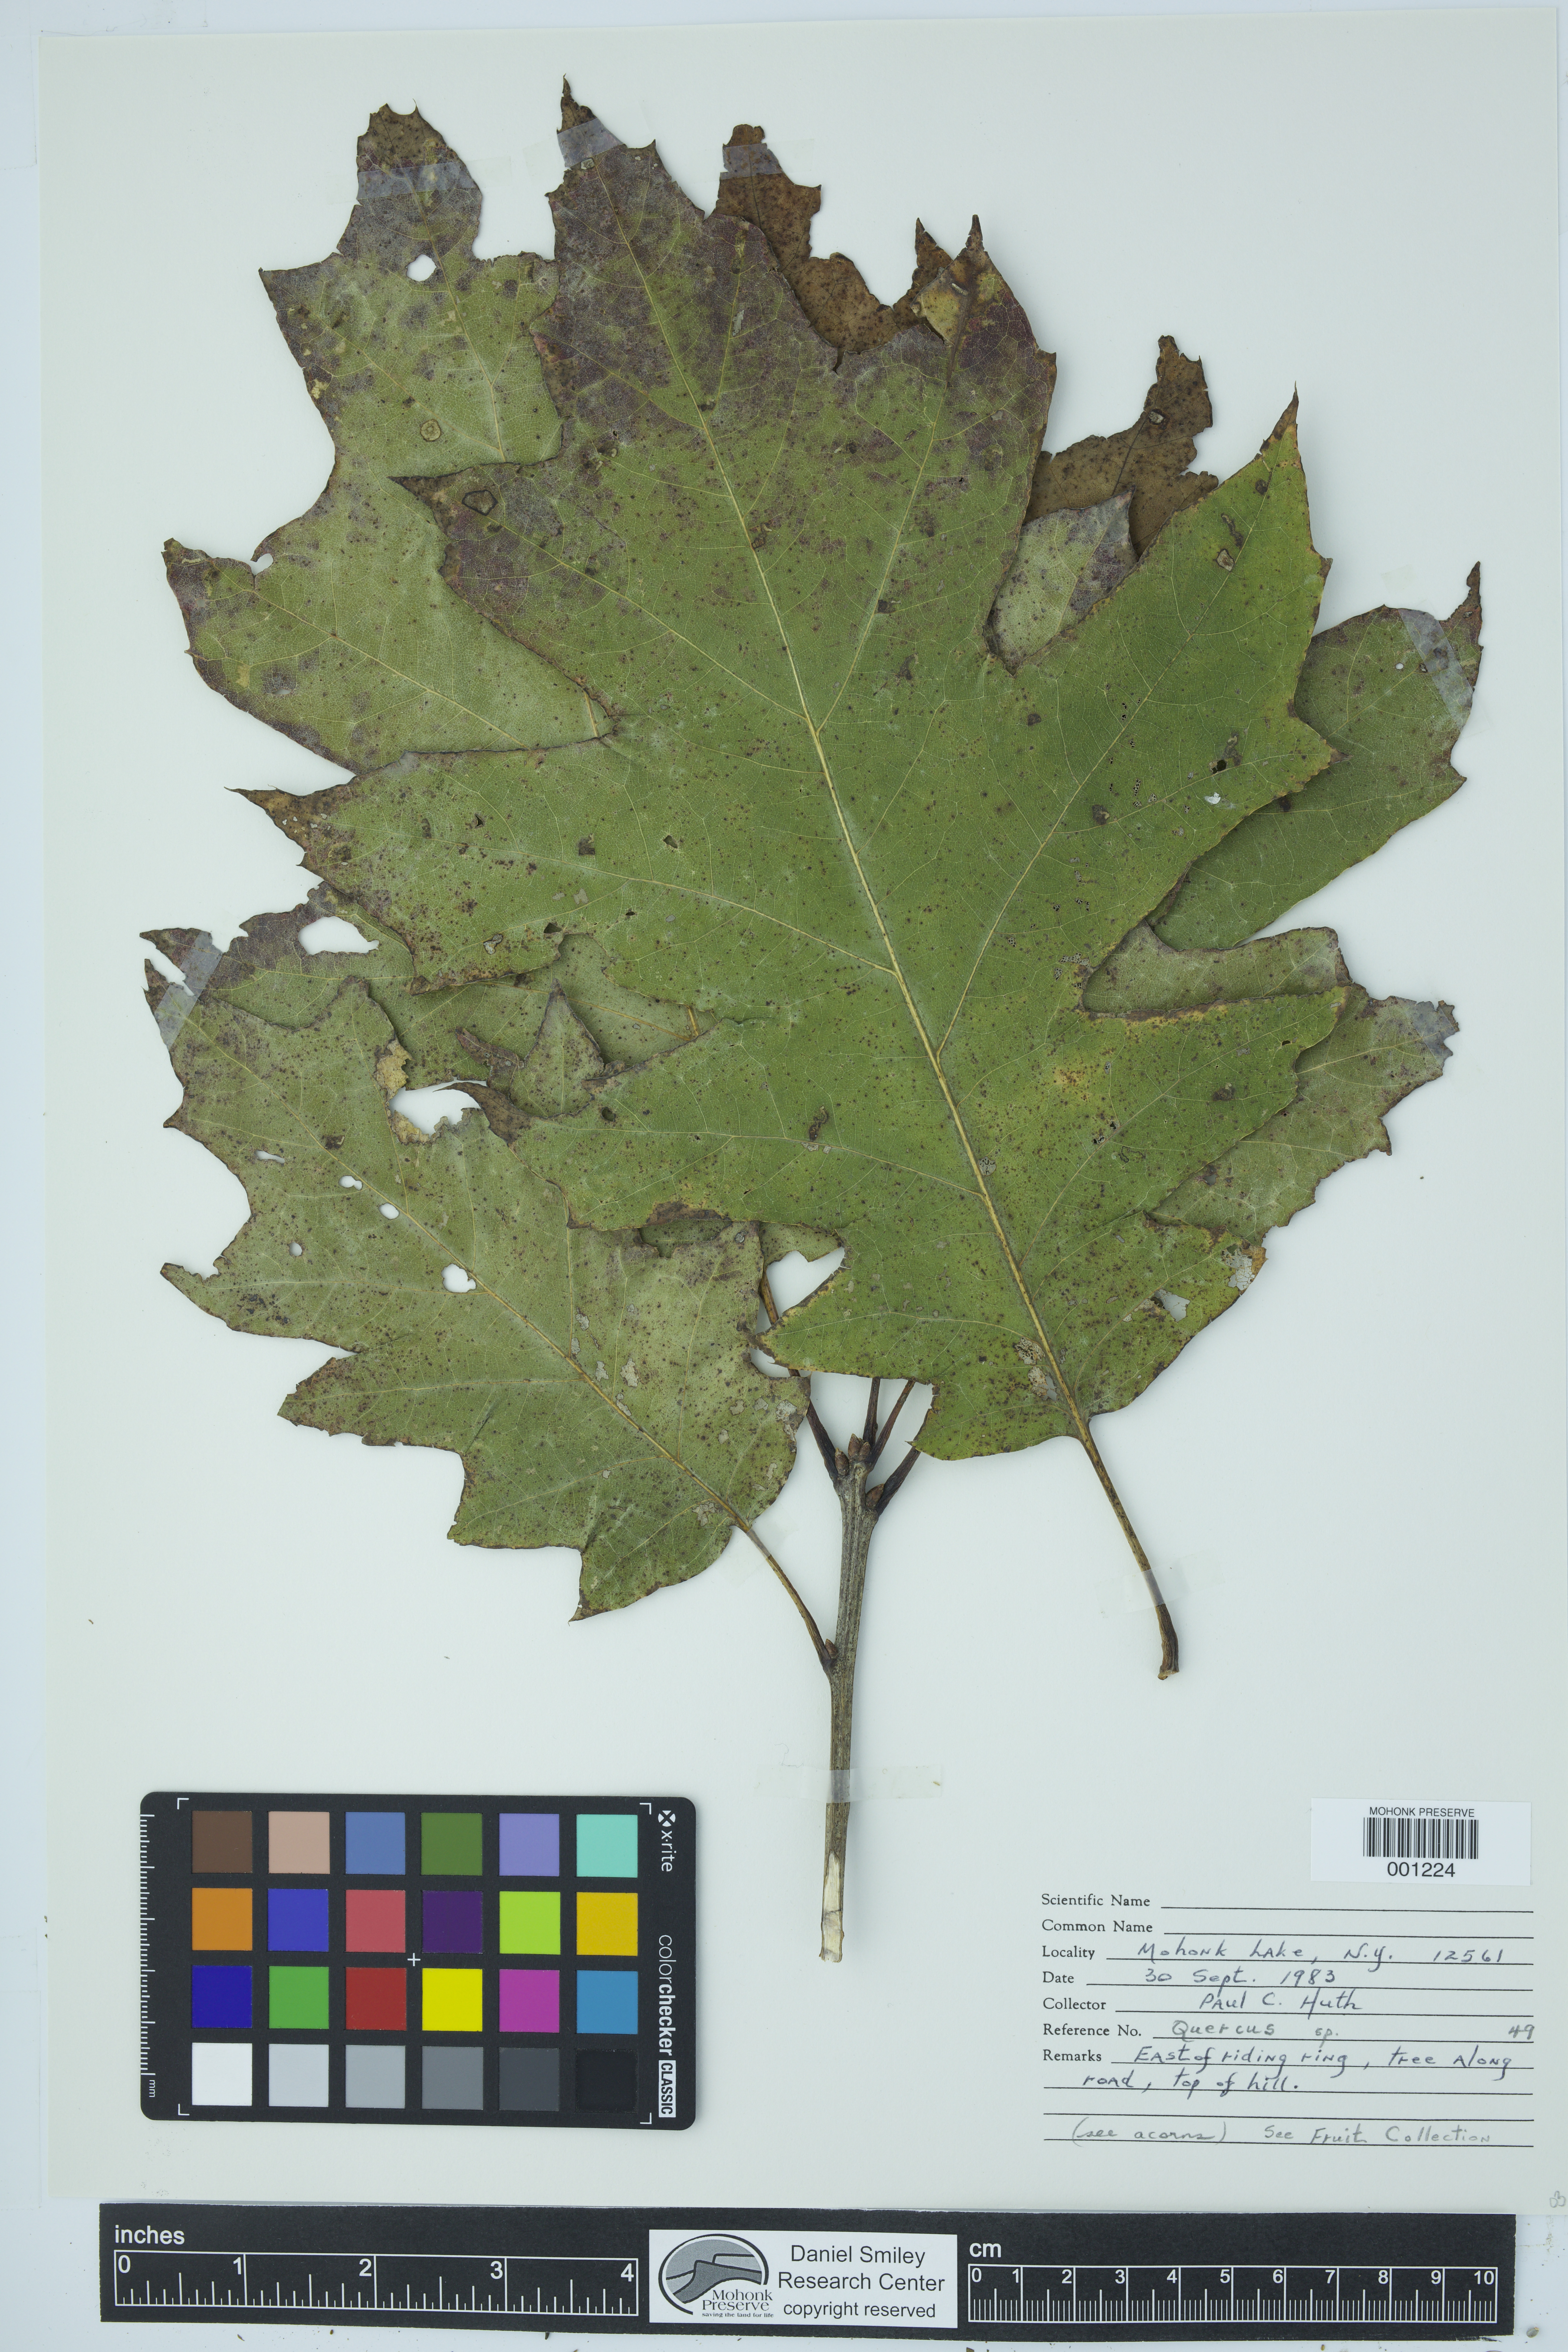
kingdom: Plantae
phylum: Tracheophyta
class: Magnoliopsida
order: Fagales
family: Fagaceae
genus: Quercus
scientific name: Quercus
